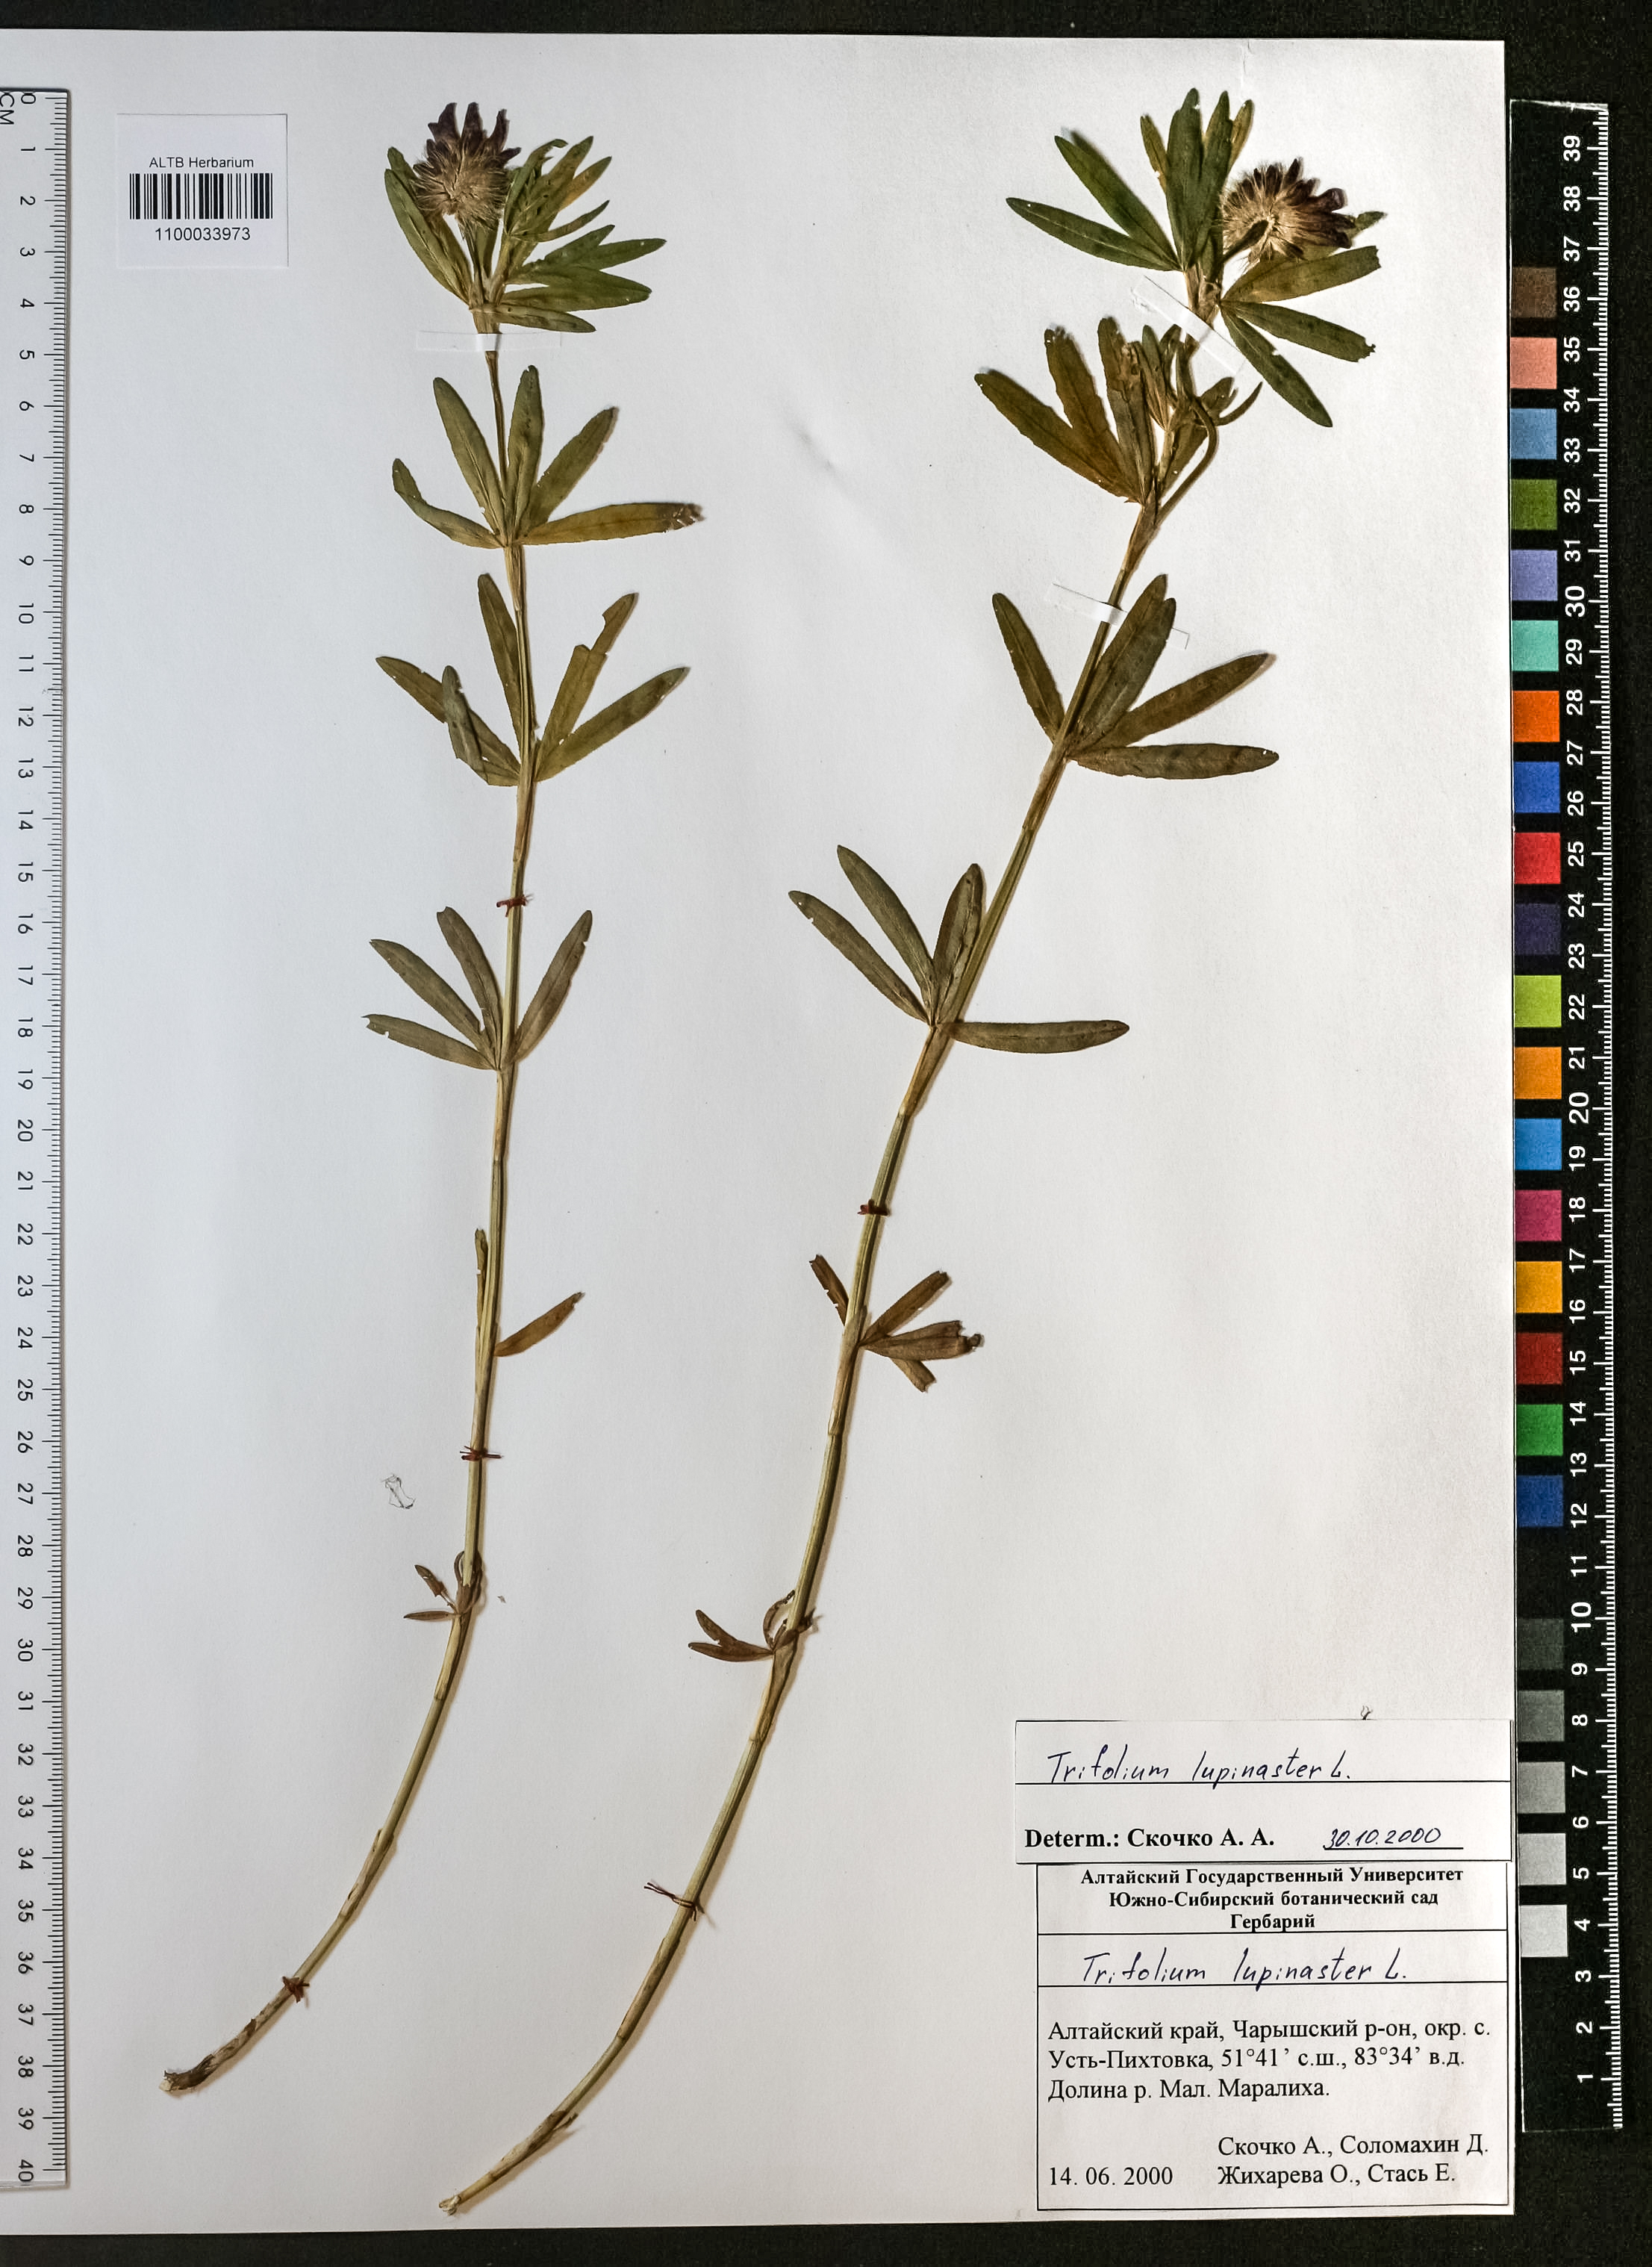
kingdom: Plantae
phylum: Tracheophyta
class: Magnoliopsida
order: Fabales
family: Fabaceae
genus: Trifolium
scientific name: Trifolium lupinaster
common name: Lupine clover
